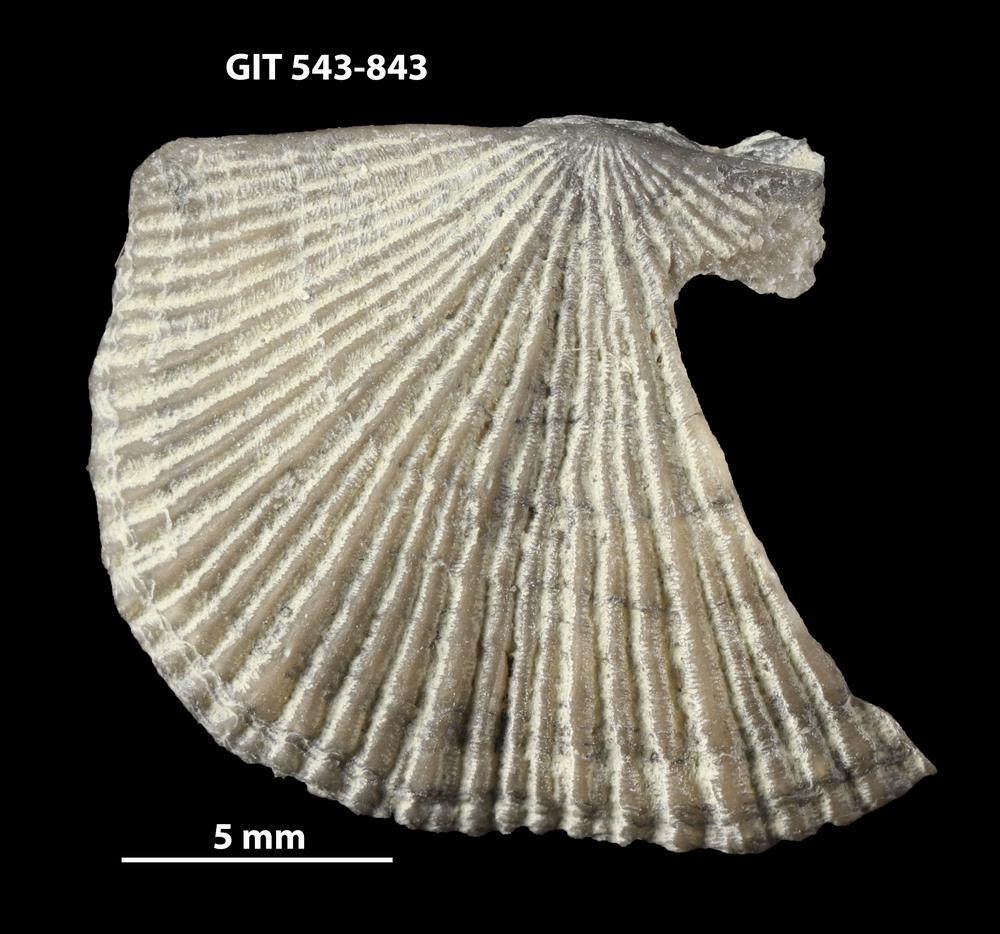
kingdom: Animalia
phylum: Brachiopoda
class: Rhynchonellata
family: Clitambonitidae
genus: Vellamo
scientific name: Vellamo oandoensis
